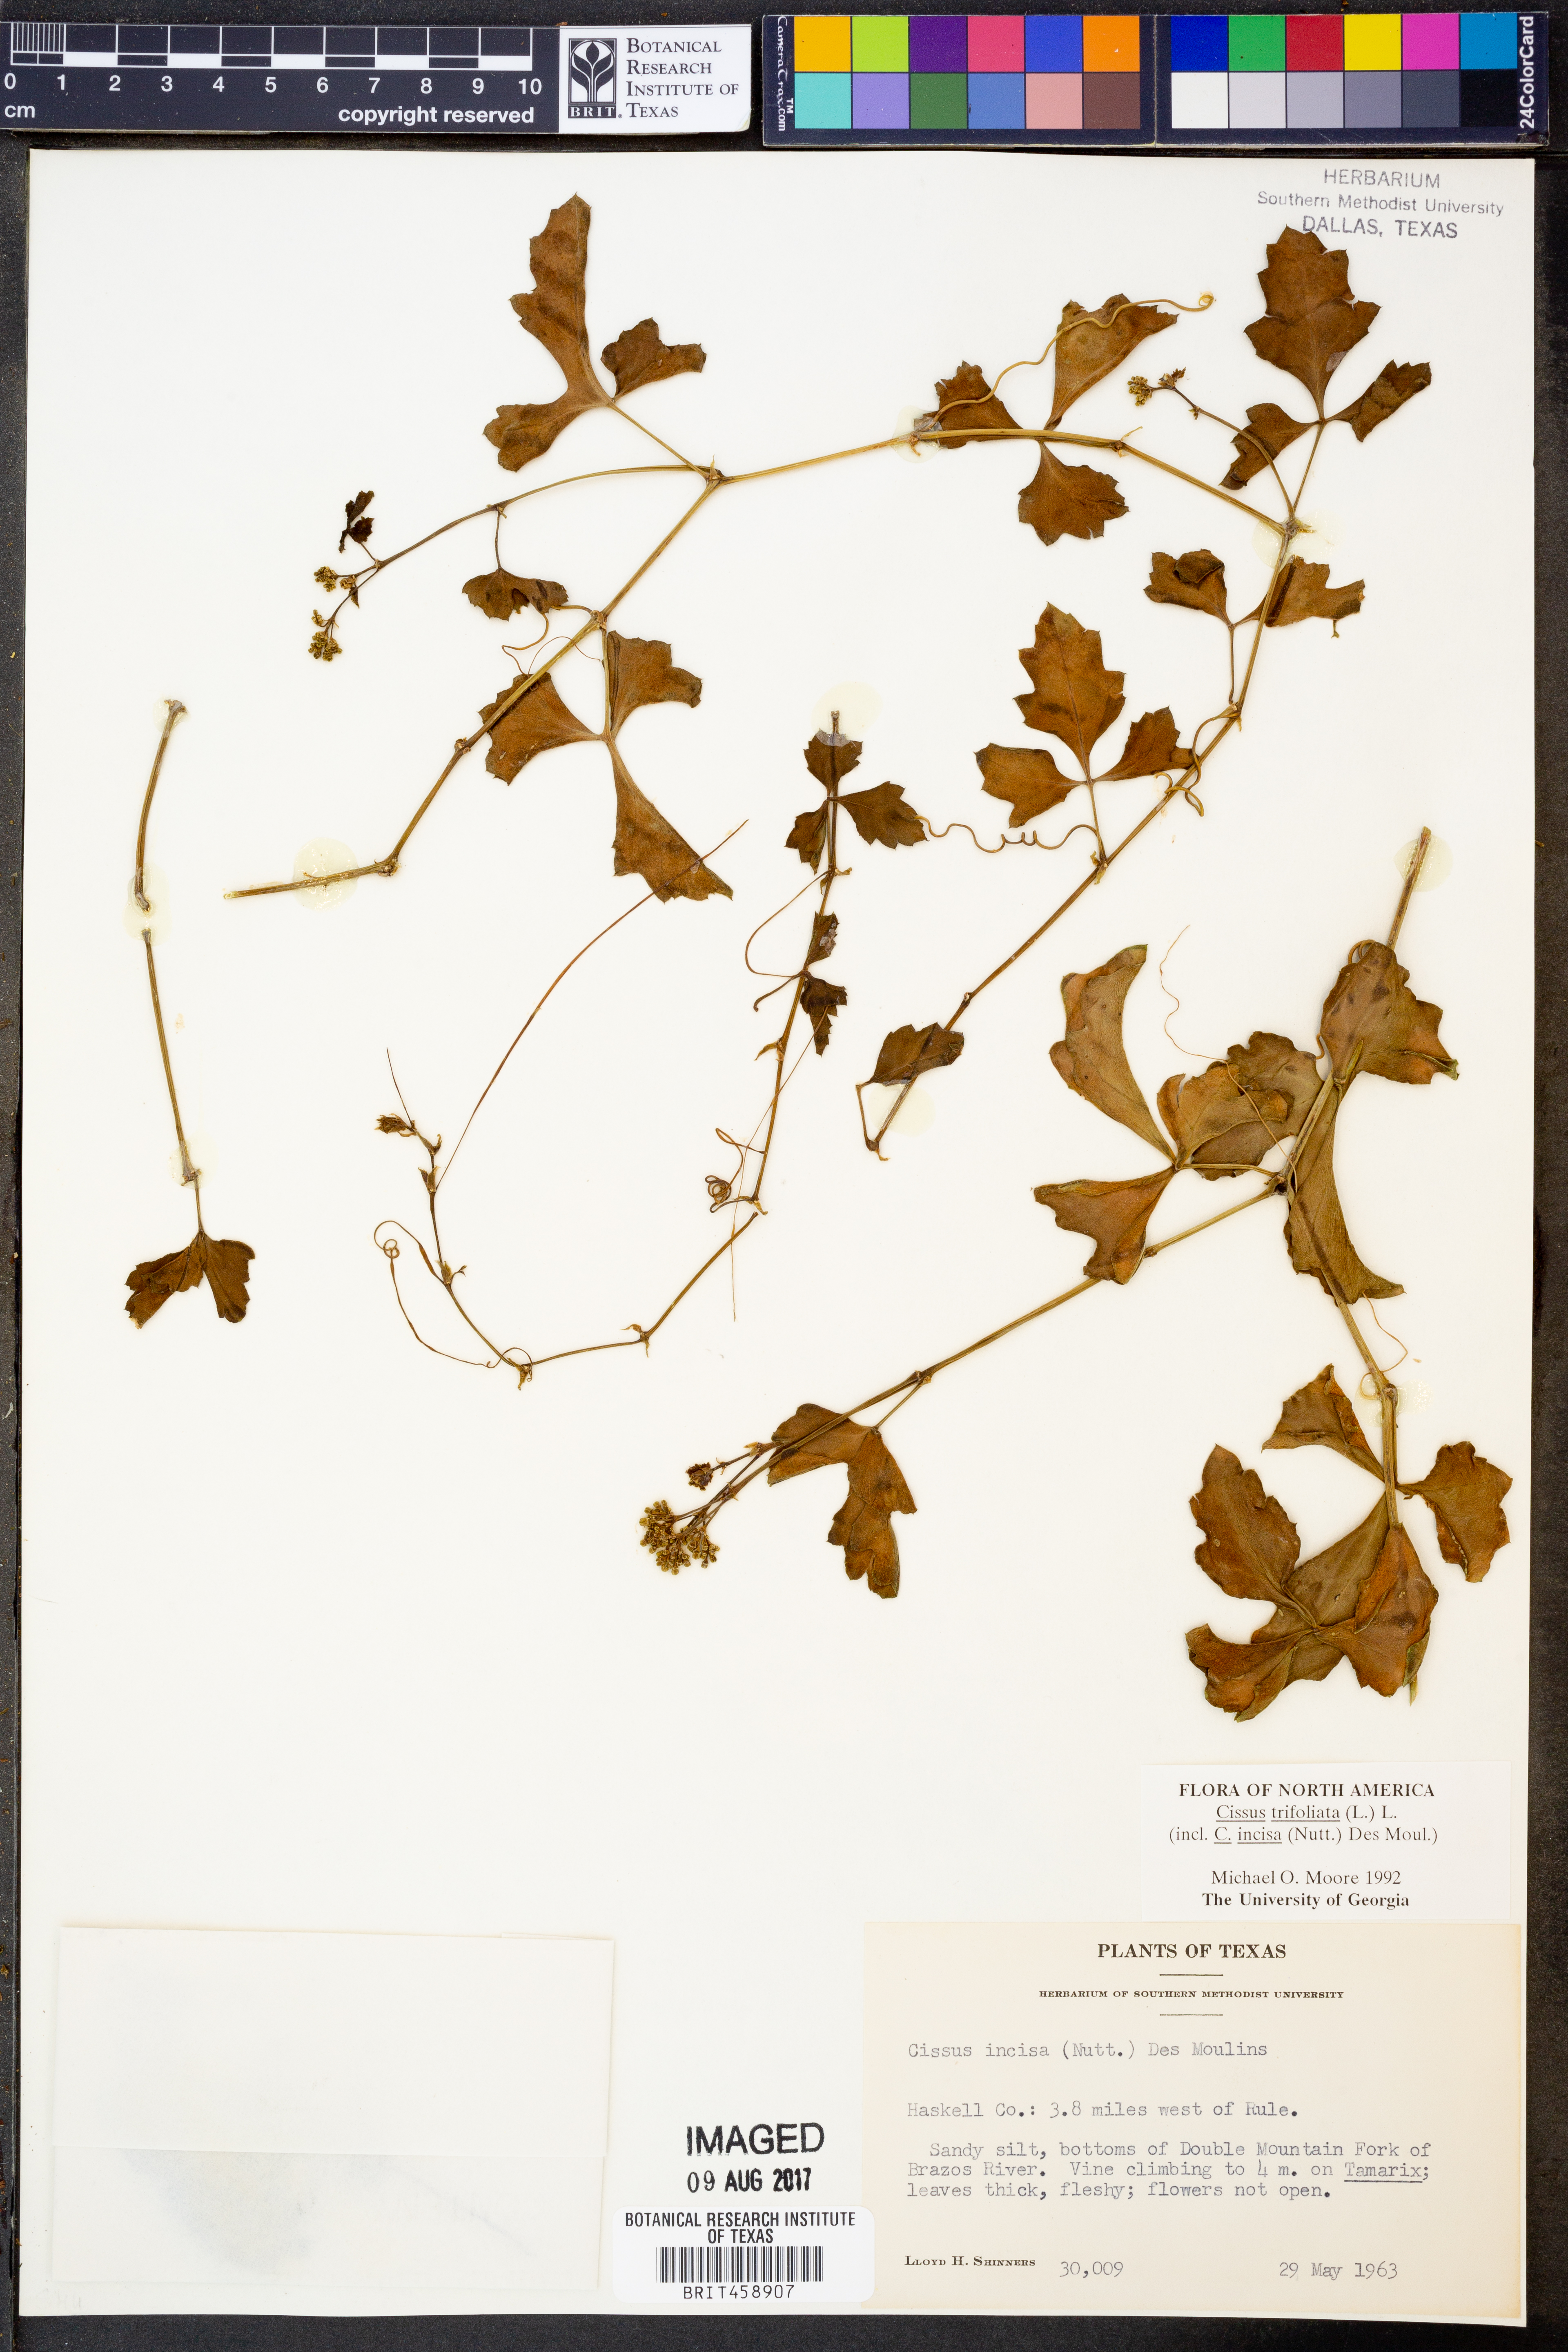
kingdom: Plantae
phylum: Tracheophyta
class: Magnoliopsida
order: Vitales
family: Vitaceae
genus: Cissus
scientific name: Cissus trifoliata
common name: Vine-sorrel
